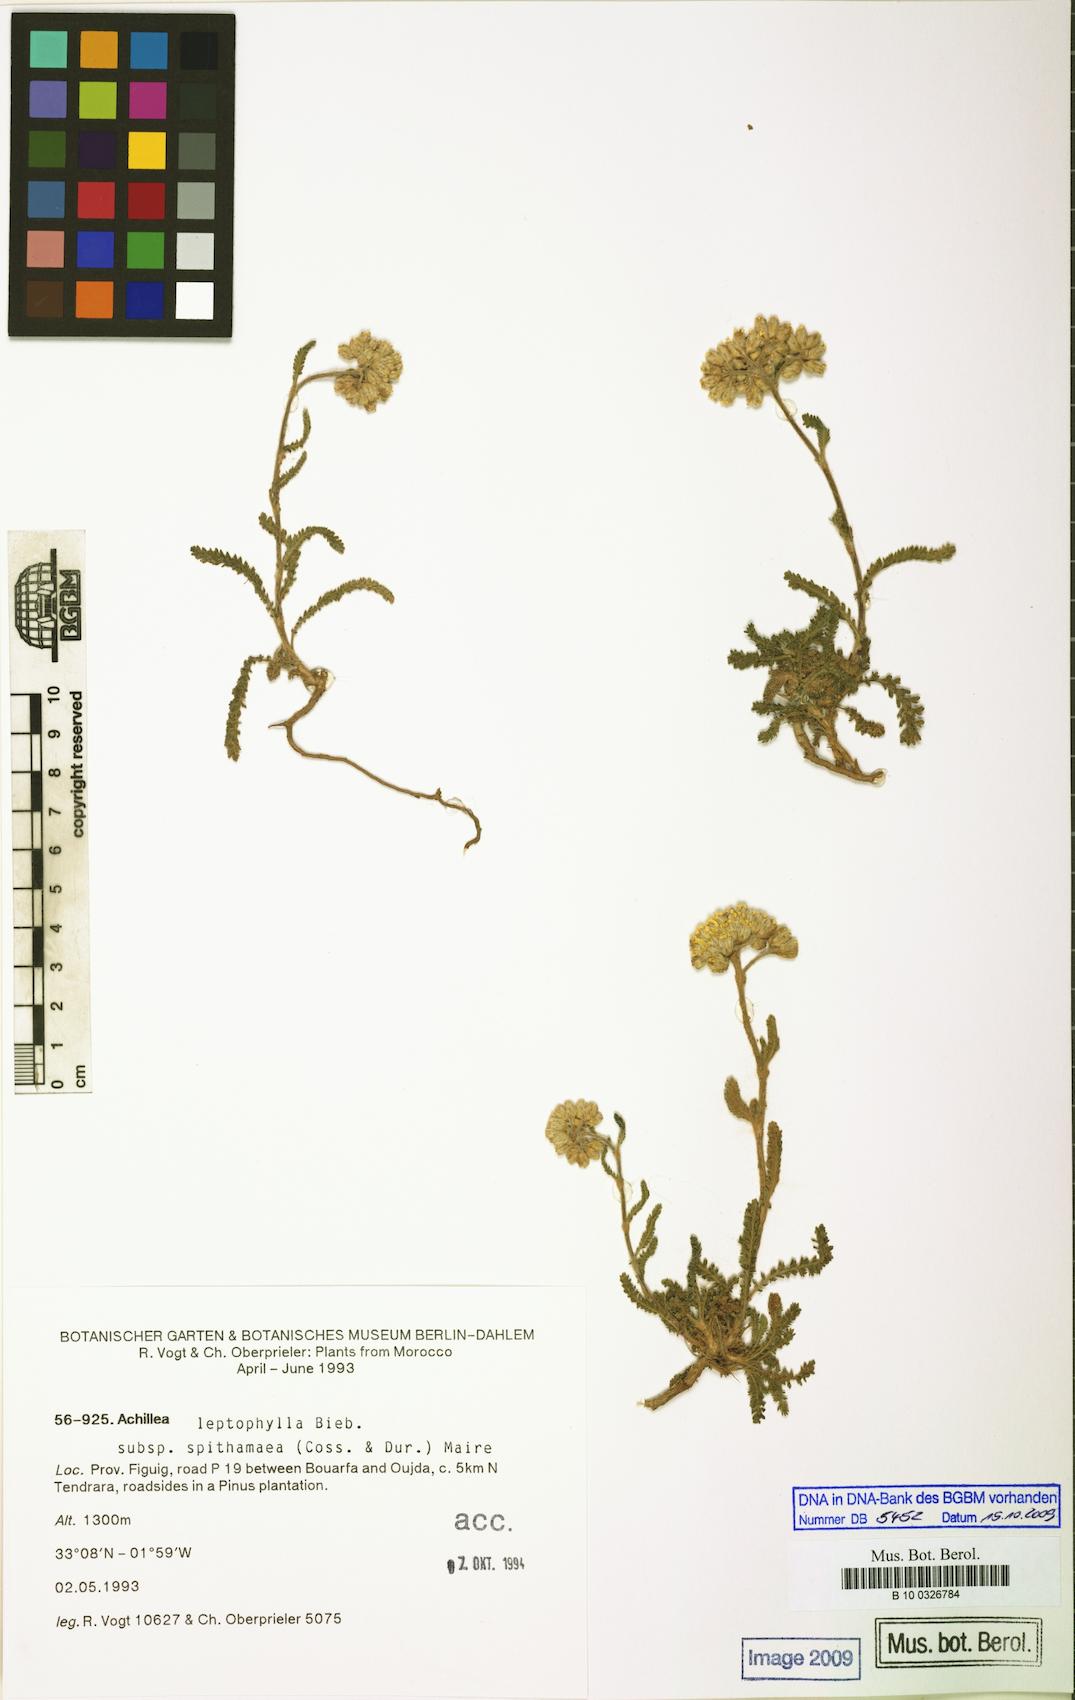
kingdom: Plantae
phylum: Tracheophyta
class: Magnoliopsida
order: Asterales
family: Asteraceae
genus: Achillea
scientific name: Achillea leptophylla
